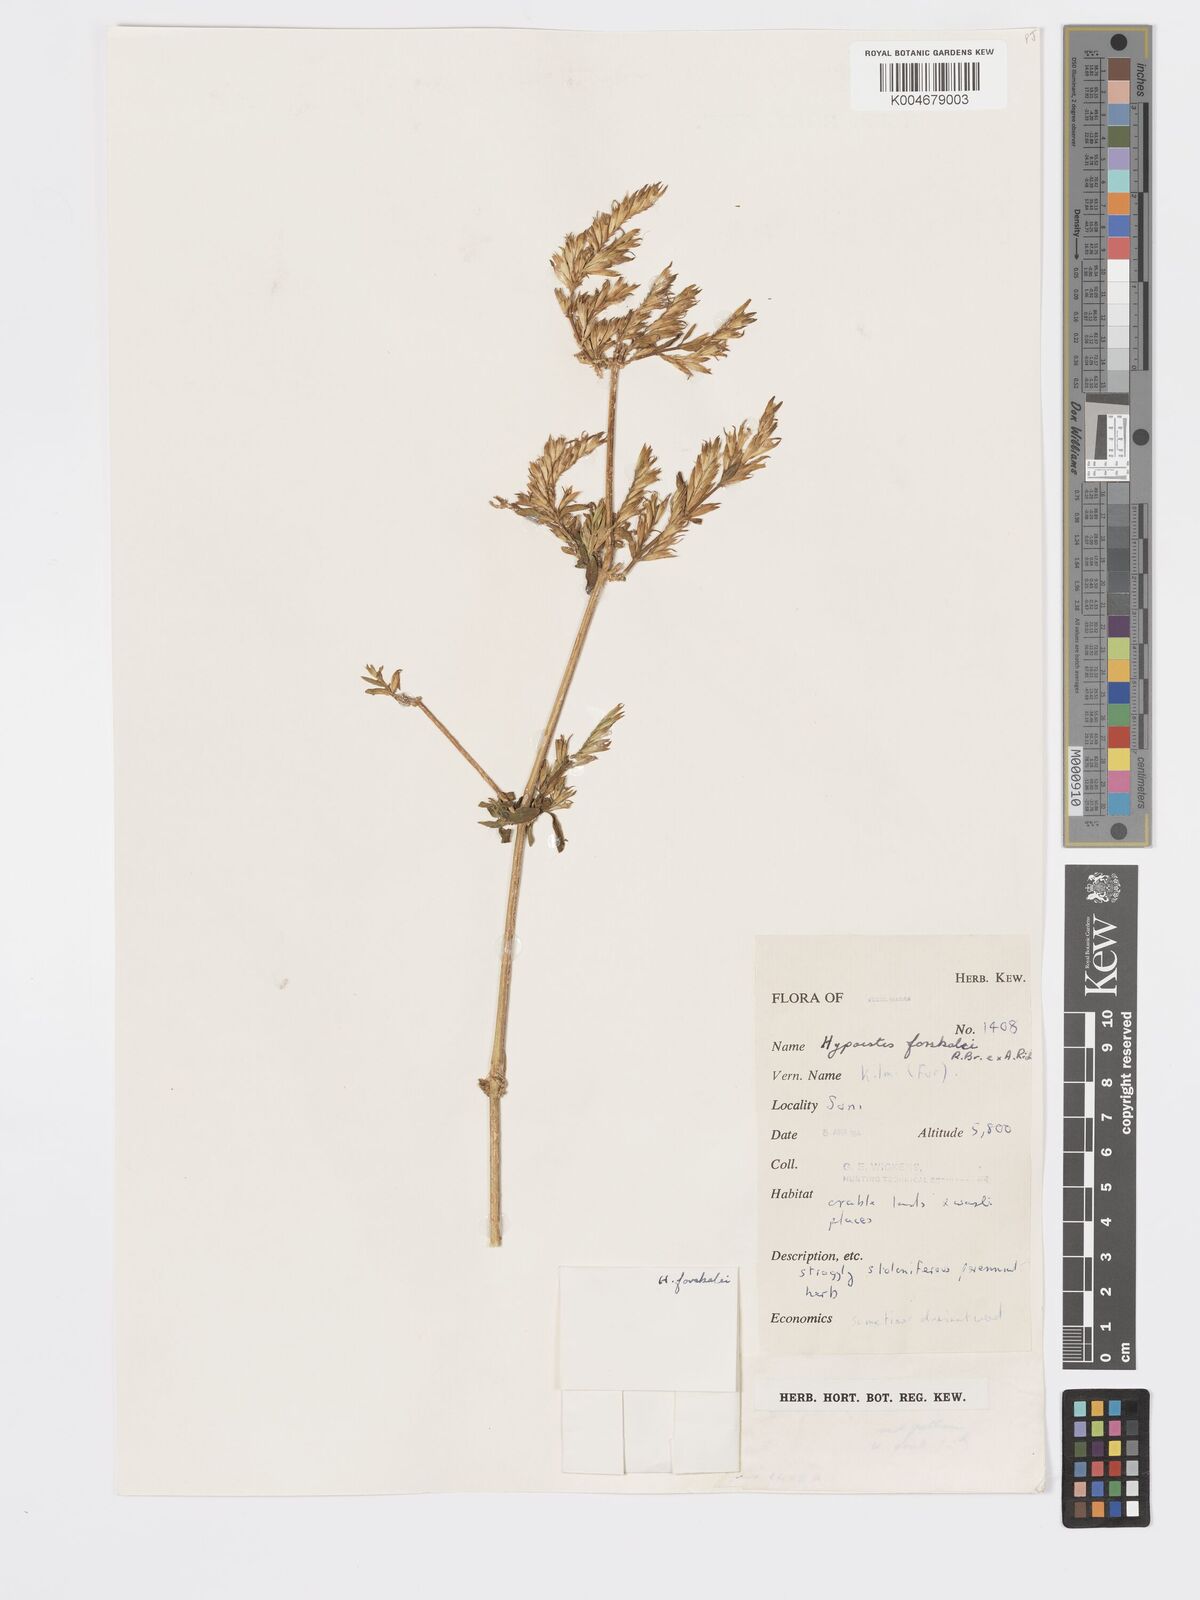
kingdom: Plantae
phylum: Tracheophyta
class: Magnoliopsida
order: Lamiales
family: Acanthaceae
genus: Hypoestes
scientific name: Hypoestes forskaolii
